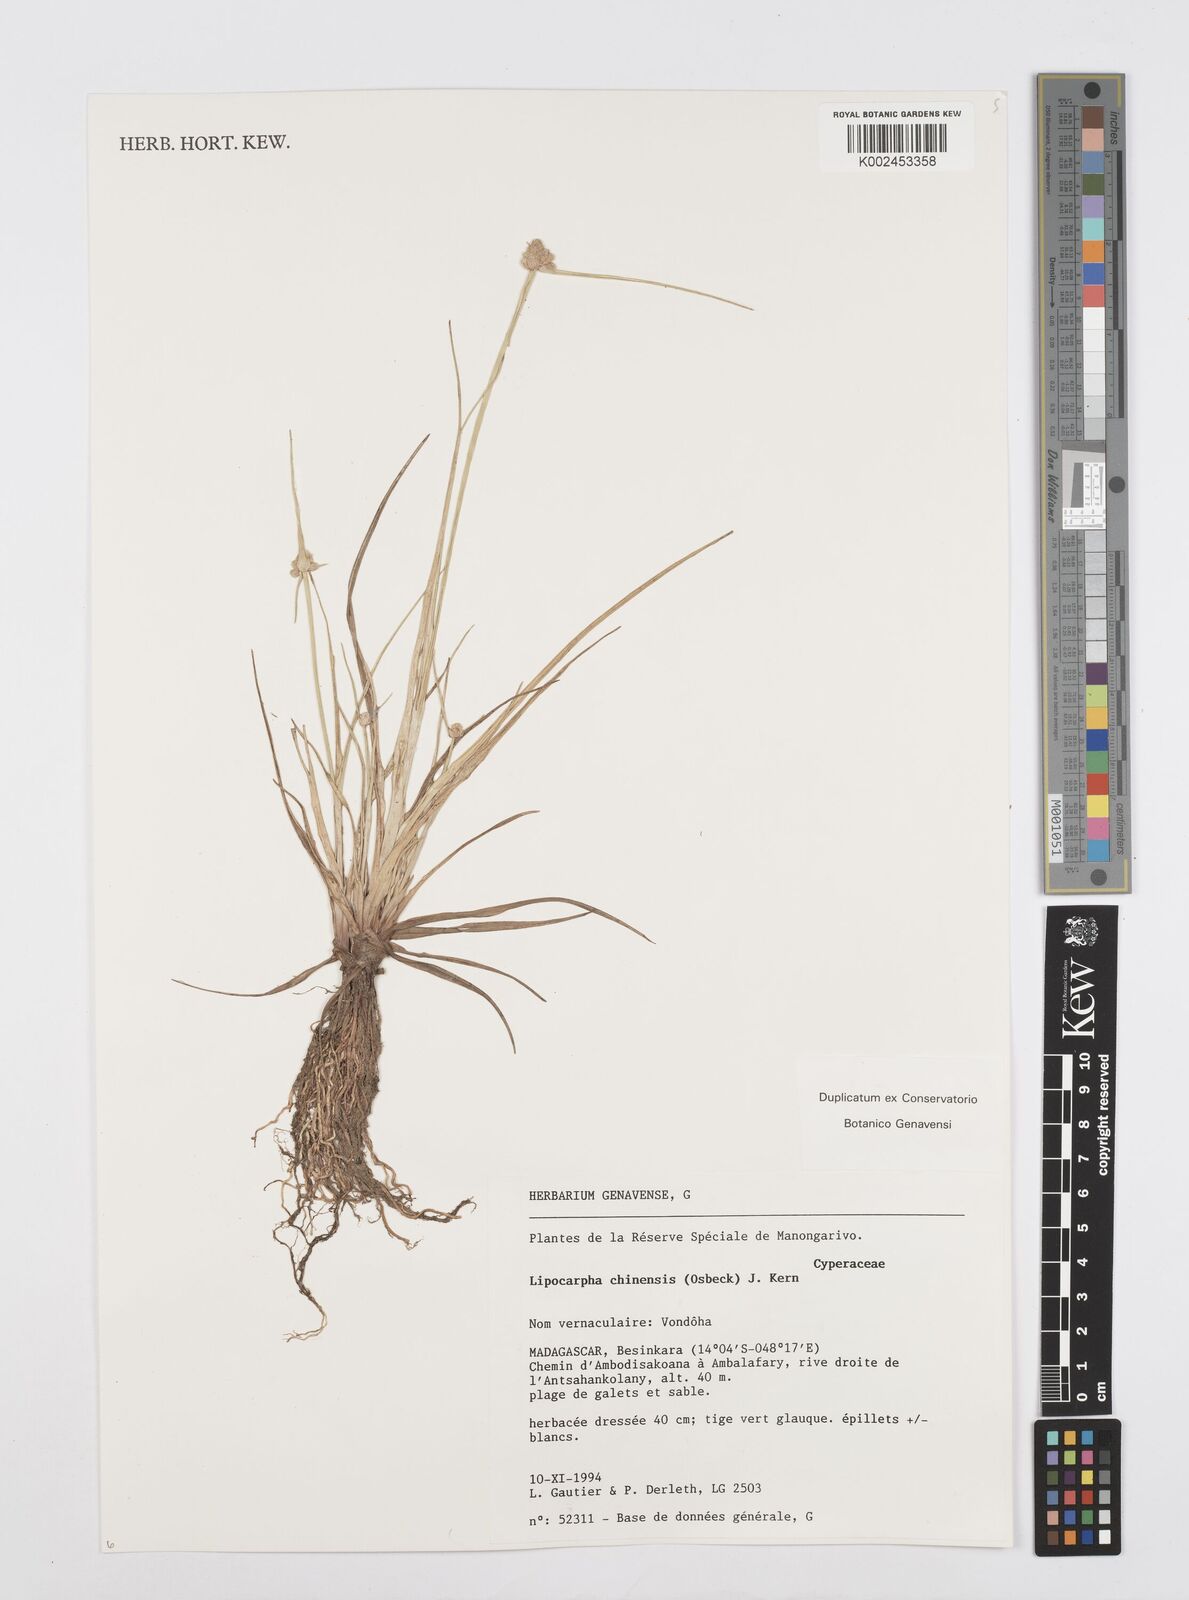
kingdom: Plantae
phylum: Tracheophyta
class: Liliopsida
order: Poales
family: Cyperaceae
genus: Cyperus
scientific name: Cyperus
